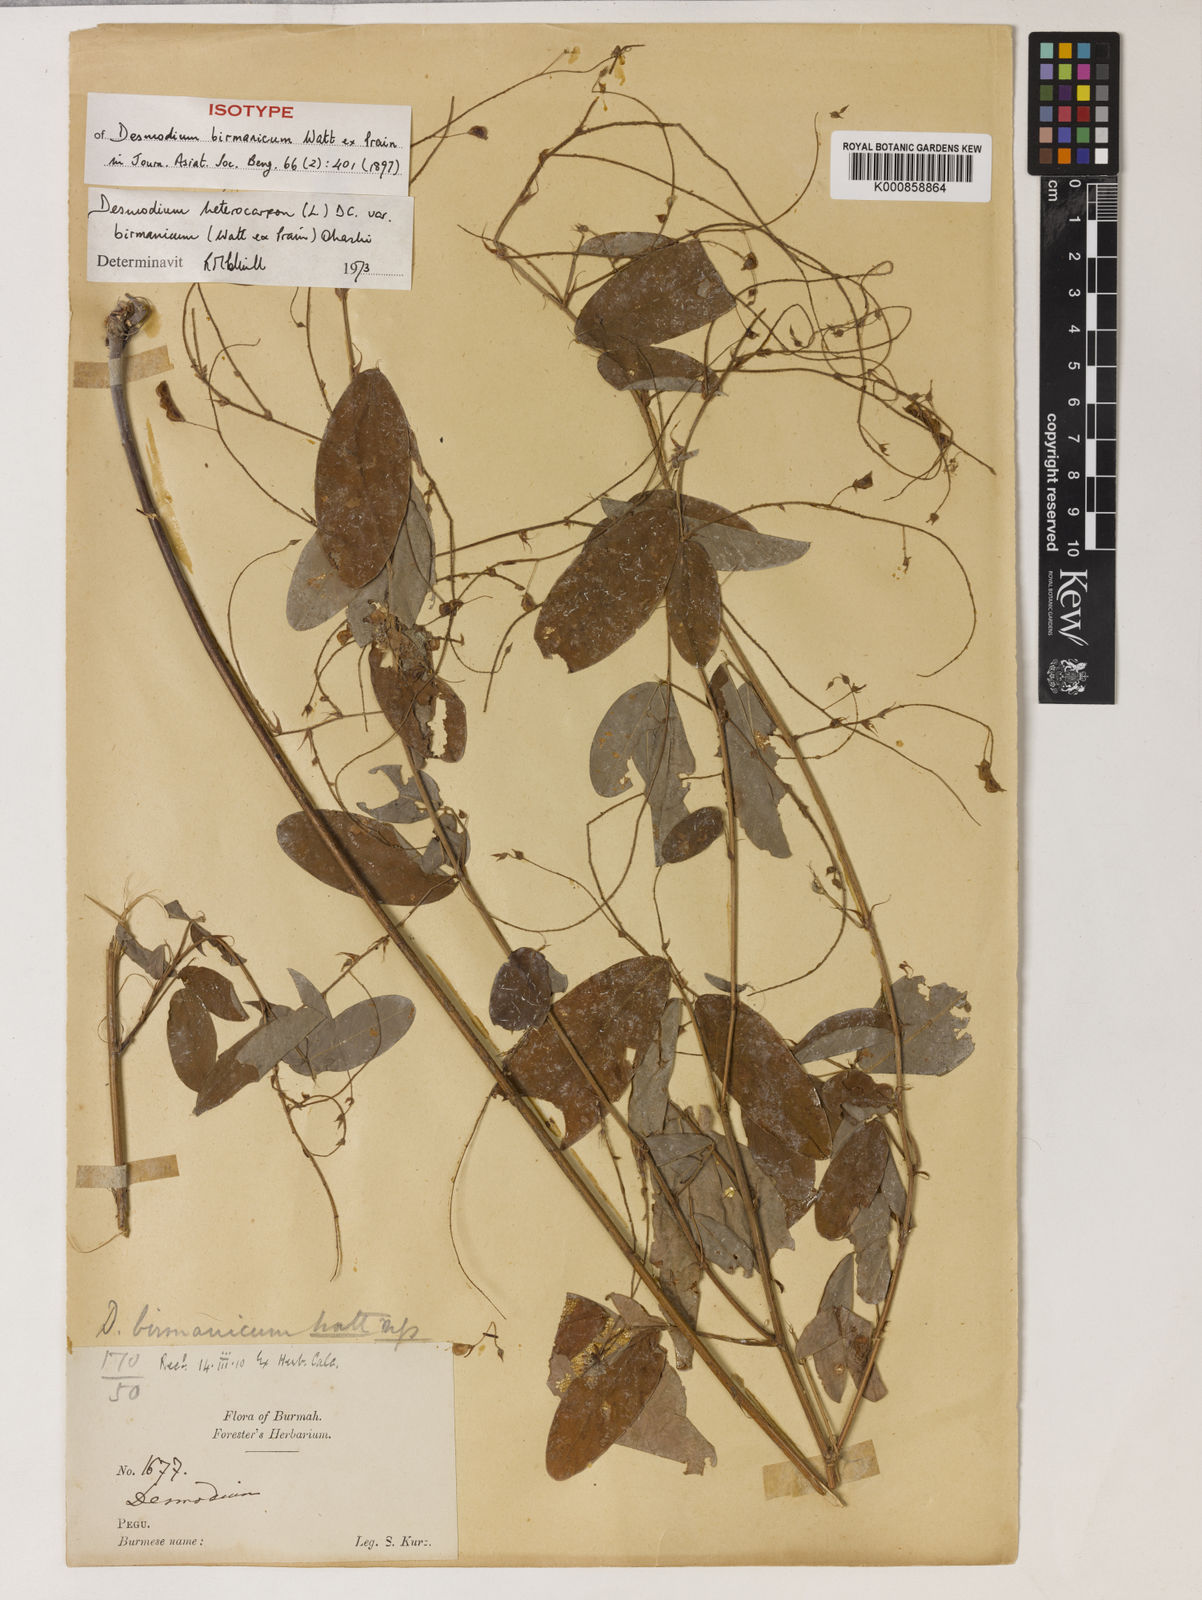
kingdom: Plantae
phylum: Tracheophyta
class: Magnoliopsida
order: Fabales
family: Fabaceae
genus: Grona
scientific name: Grona birmannica
